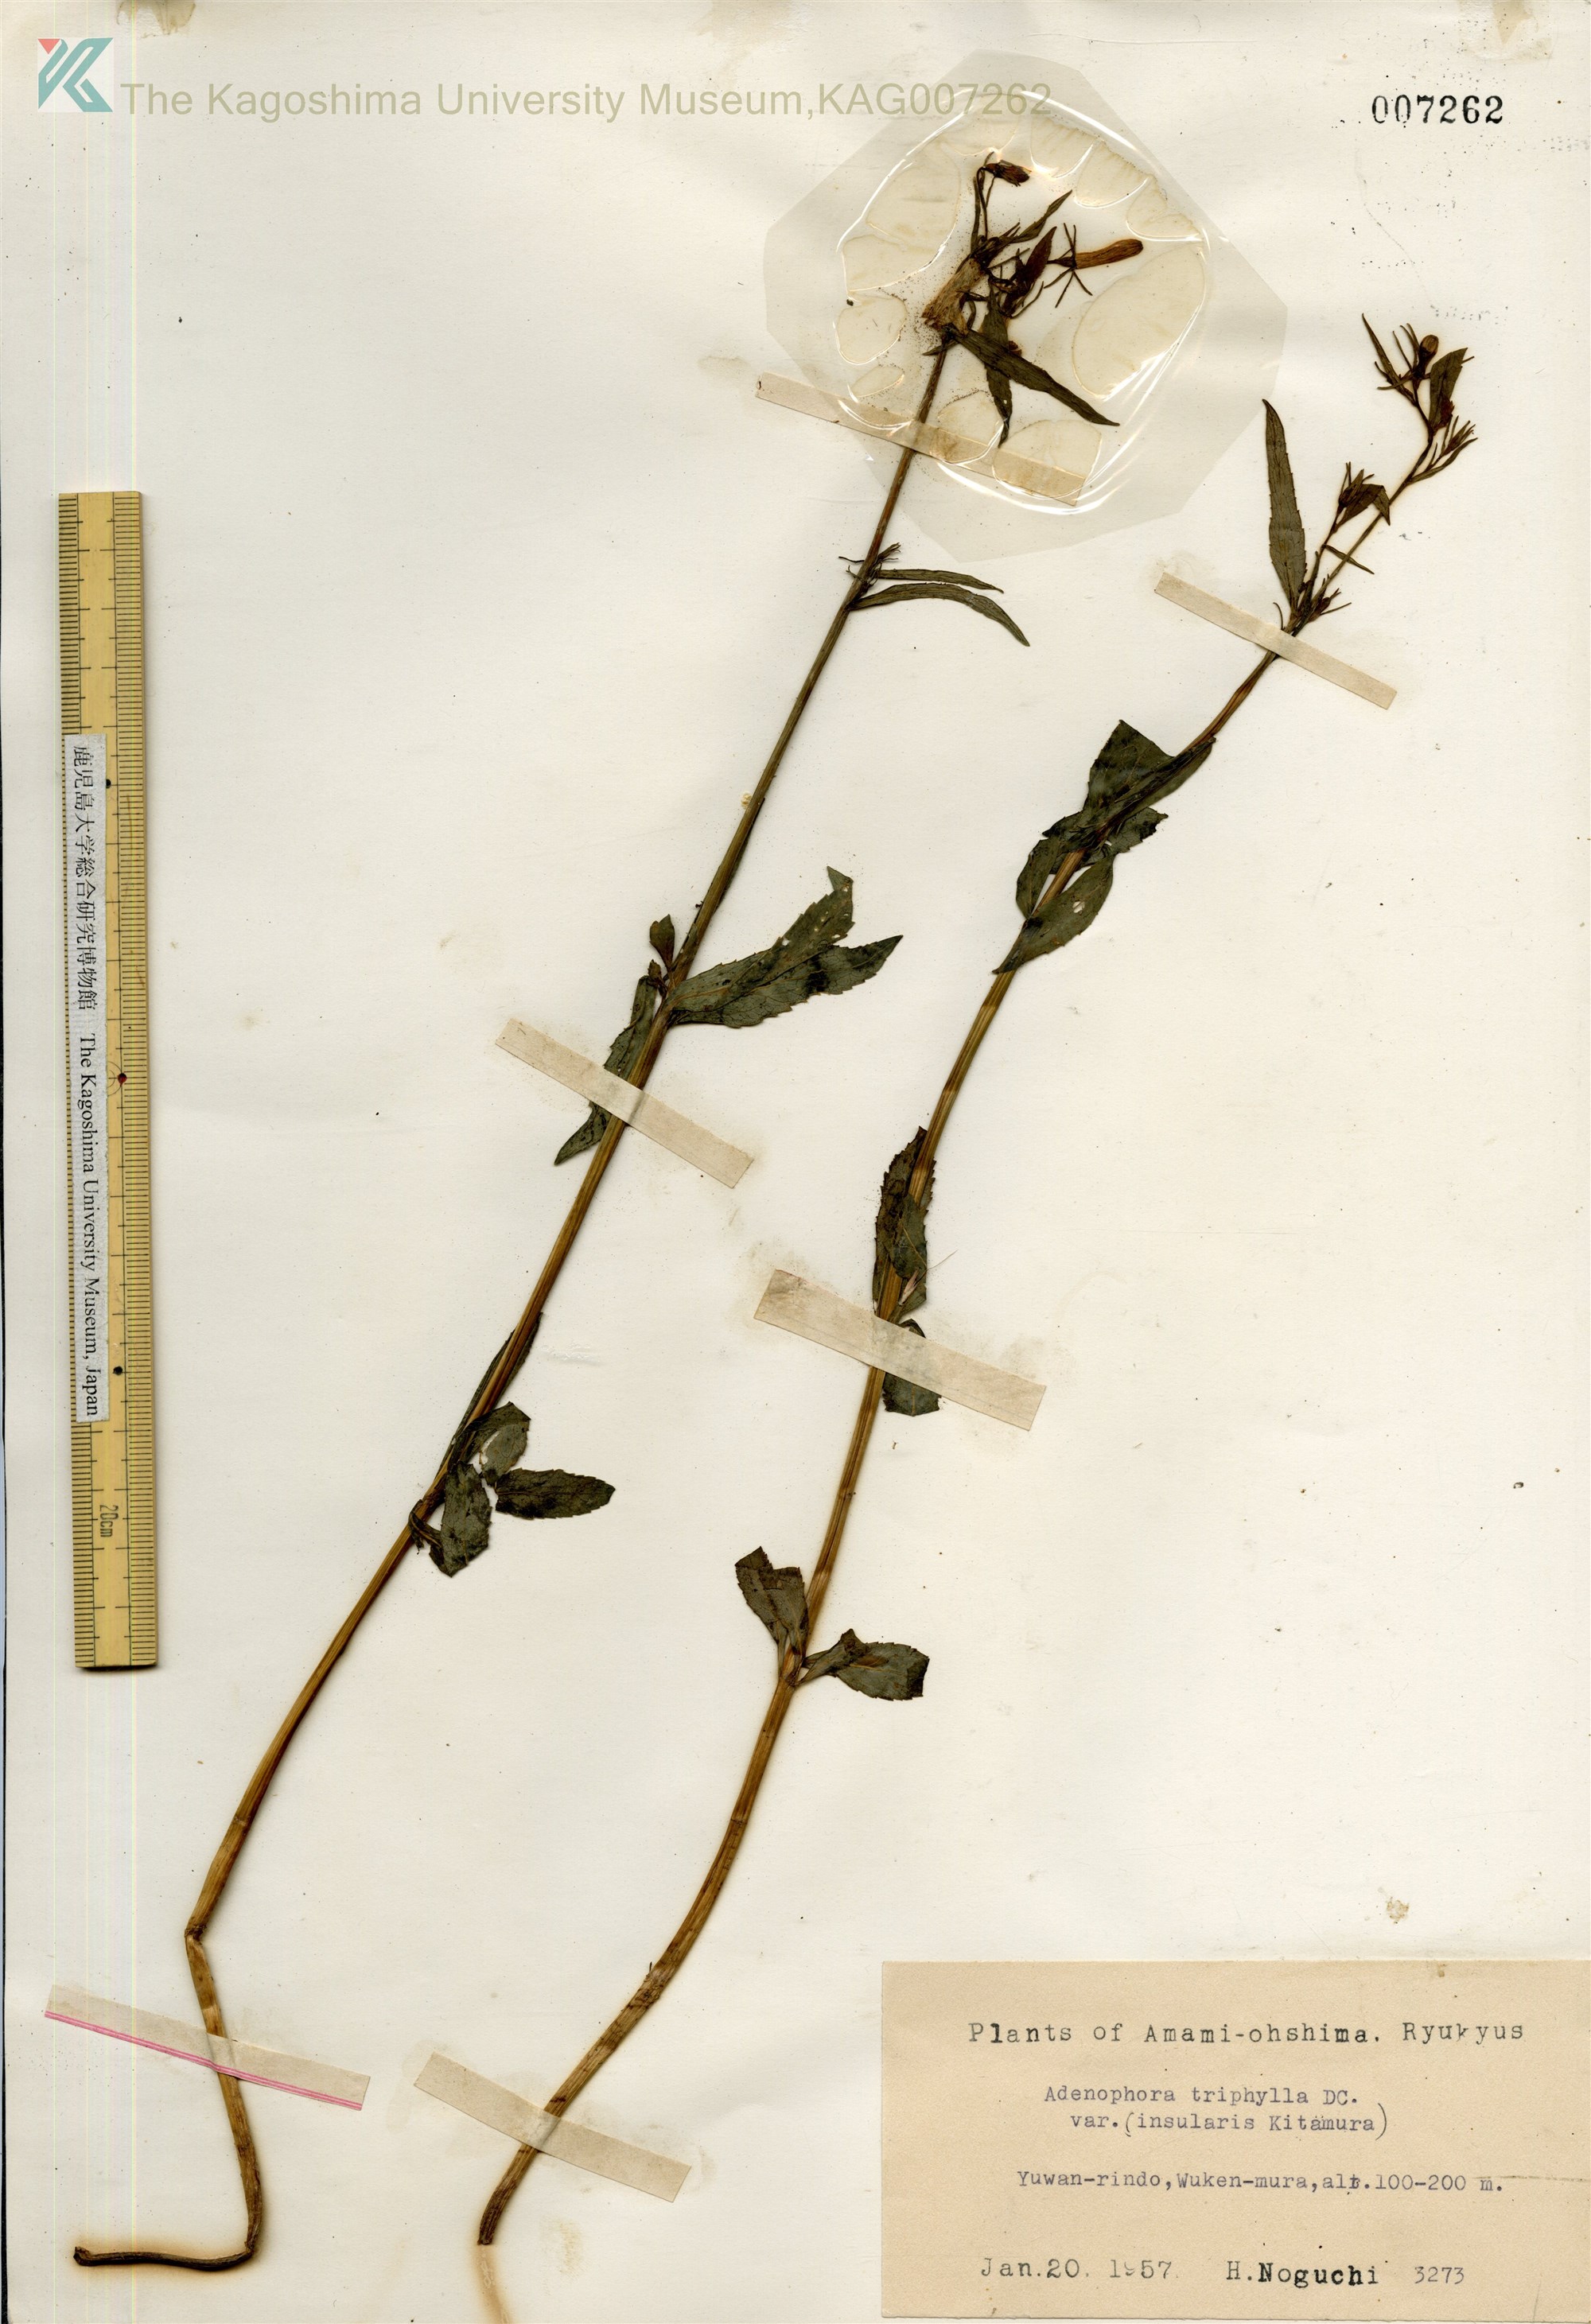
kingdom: Plantae
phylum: Tracheophyta
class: Magnoliopsida
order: Asterales
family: Campanulaceae
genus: Adenophora
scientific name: Adenophora tashiroi
